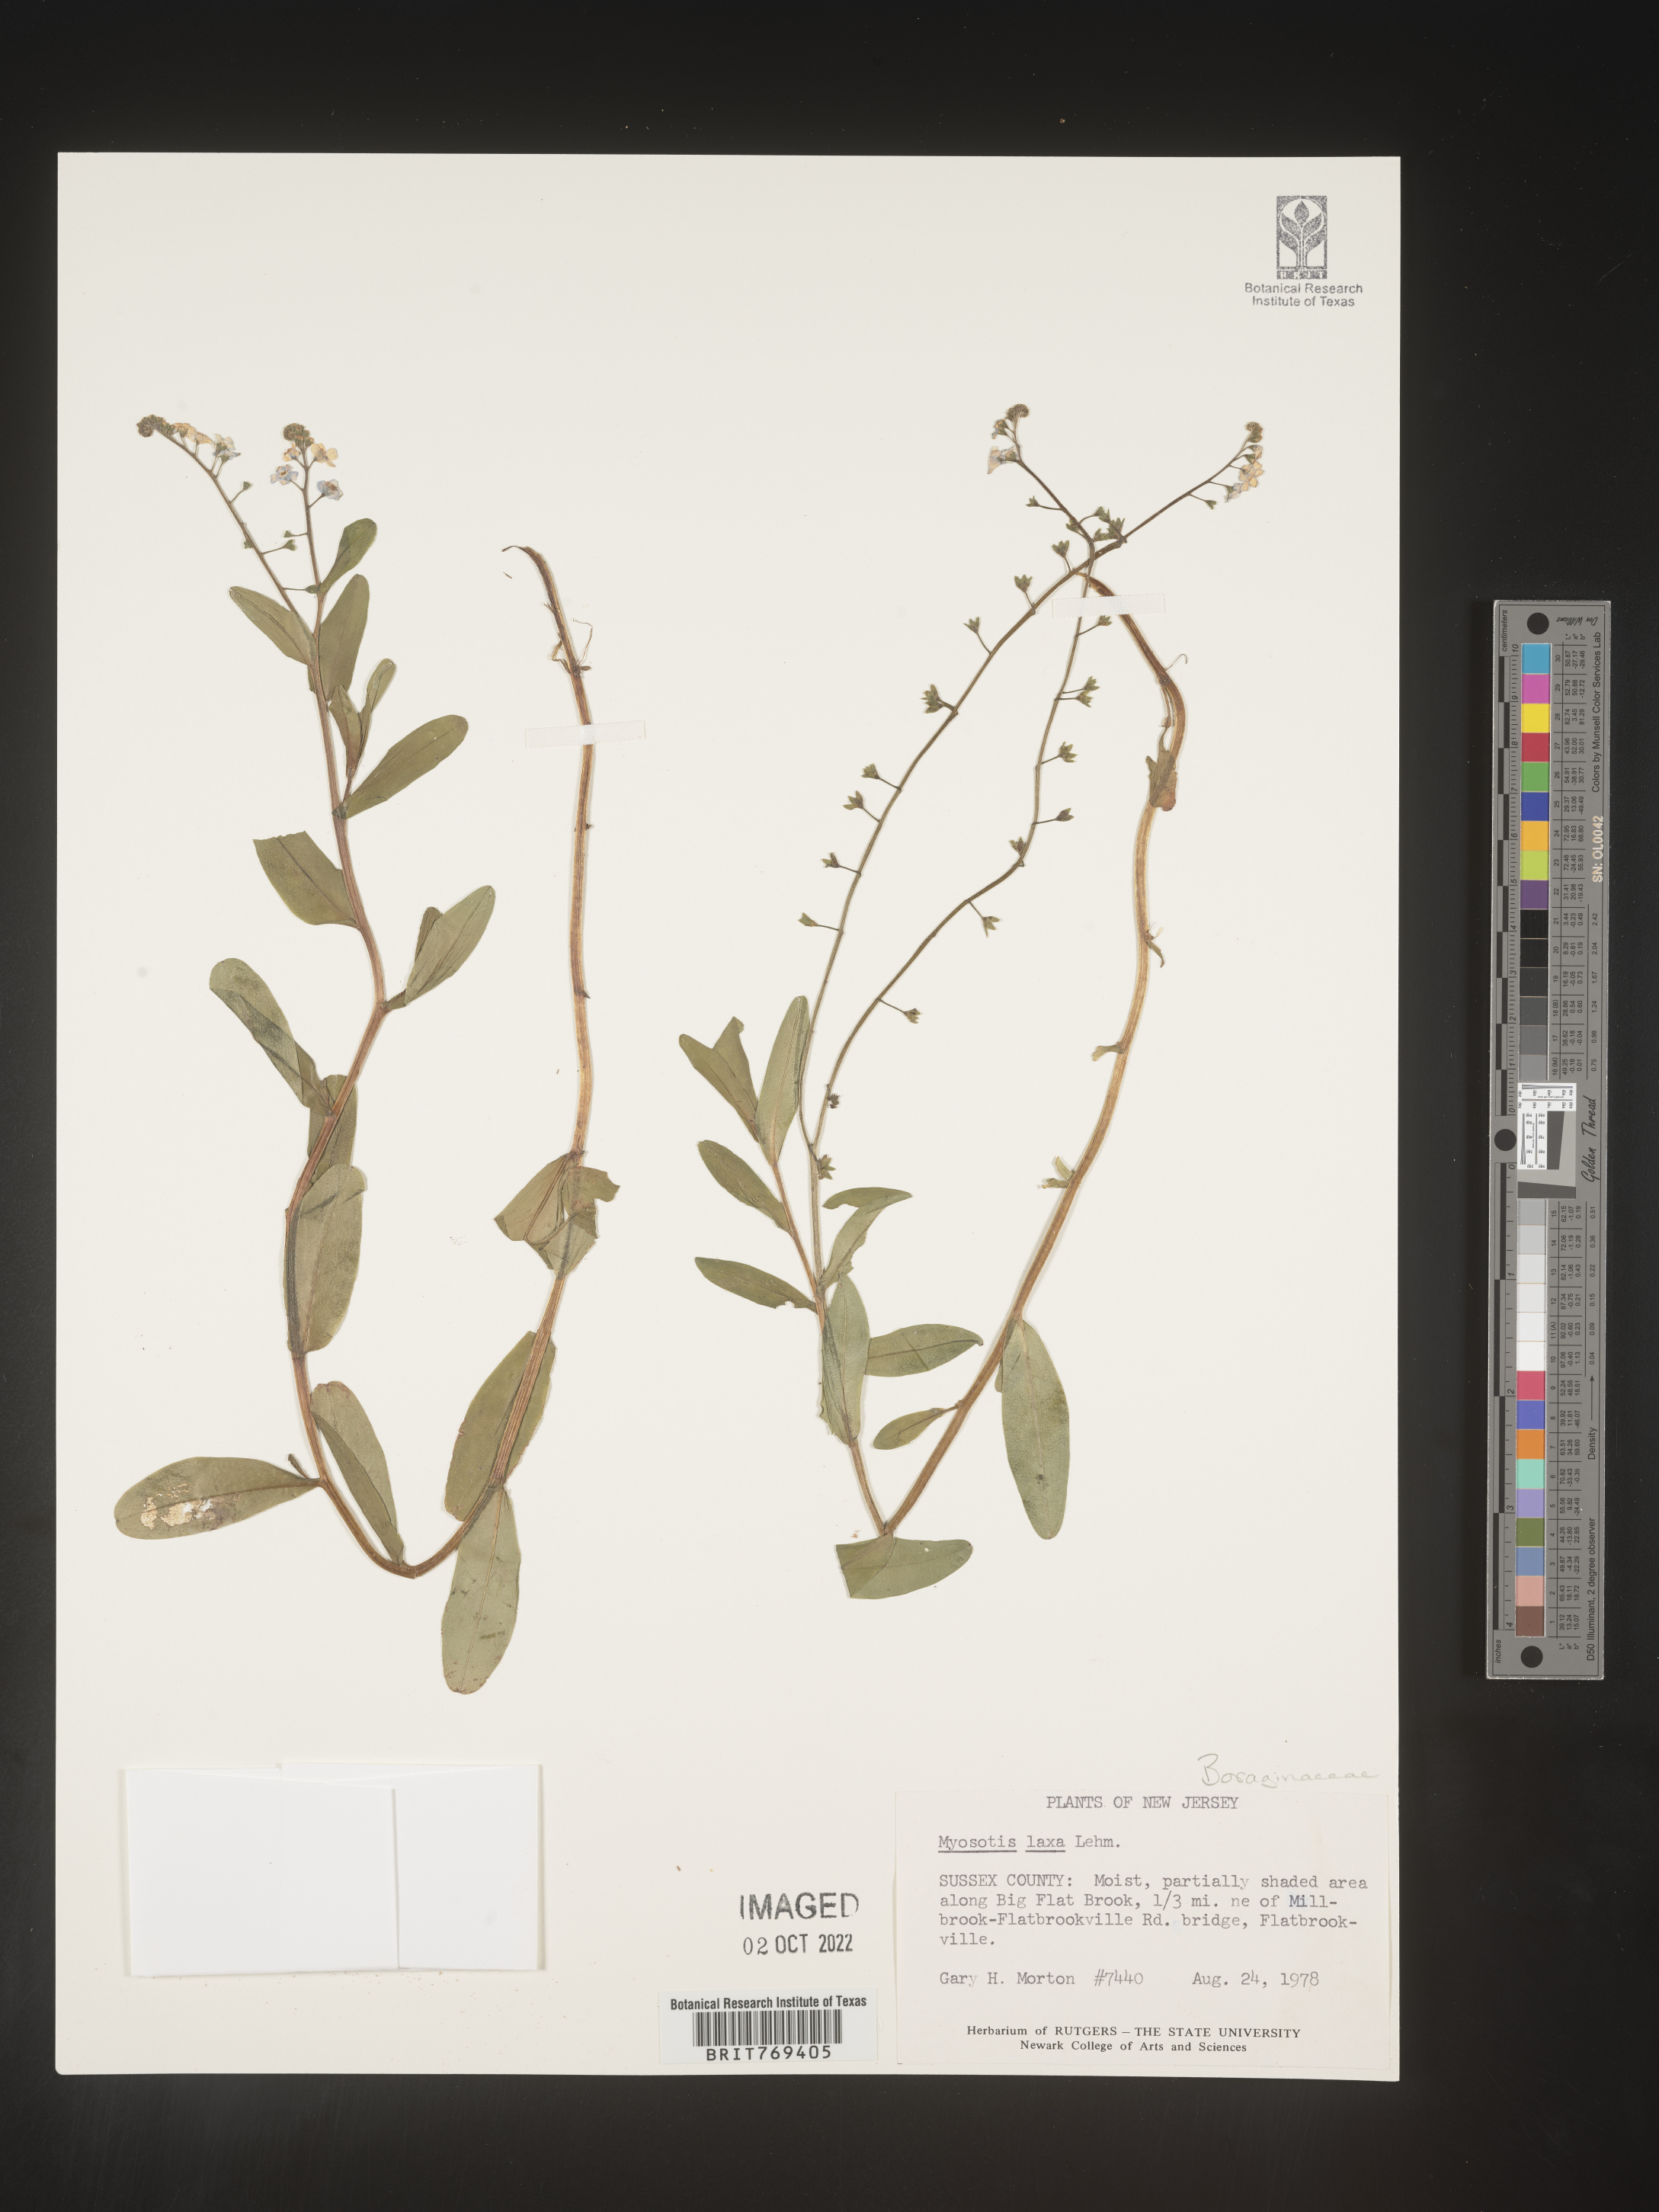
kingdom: Plantae
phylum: Tracheophyta
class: Magnoliopsida
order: Boraginales
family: Boraginaceae
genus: Myosotis
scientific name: Myosotis
